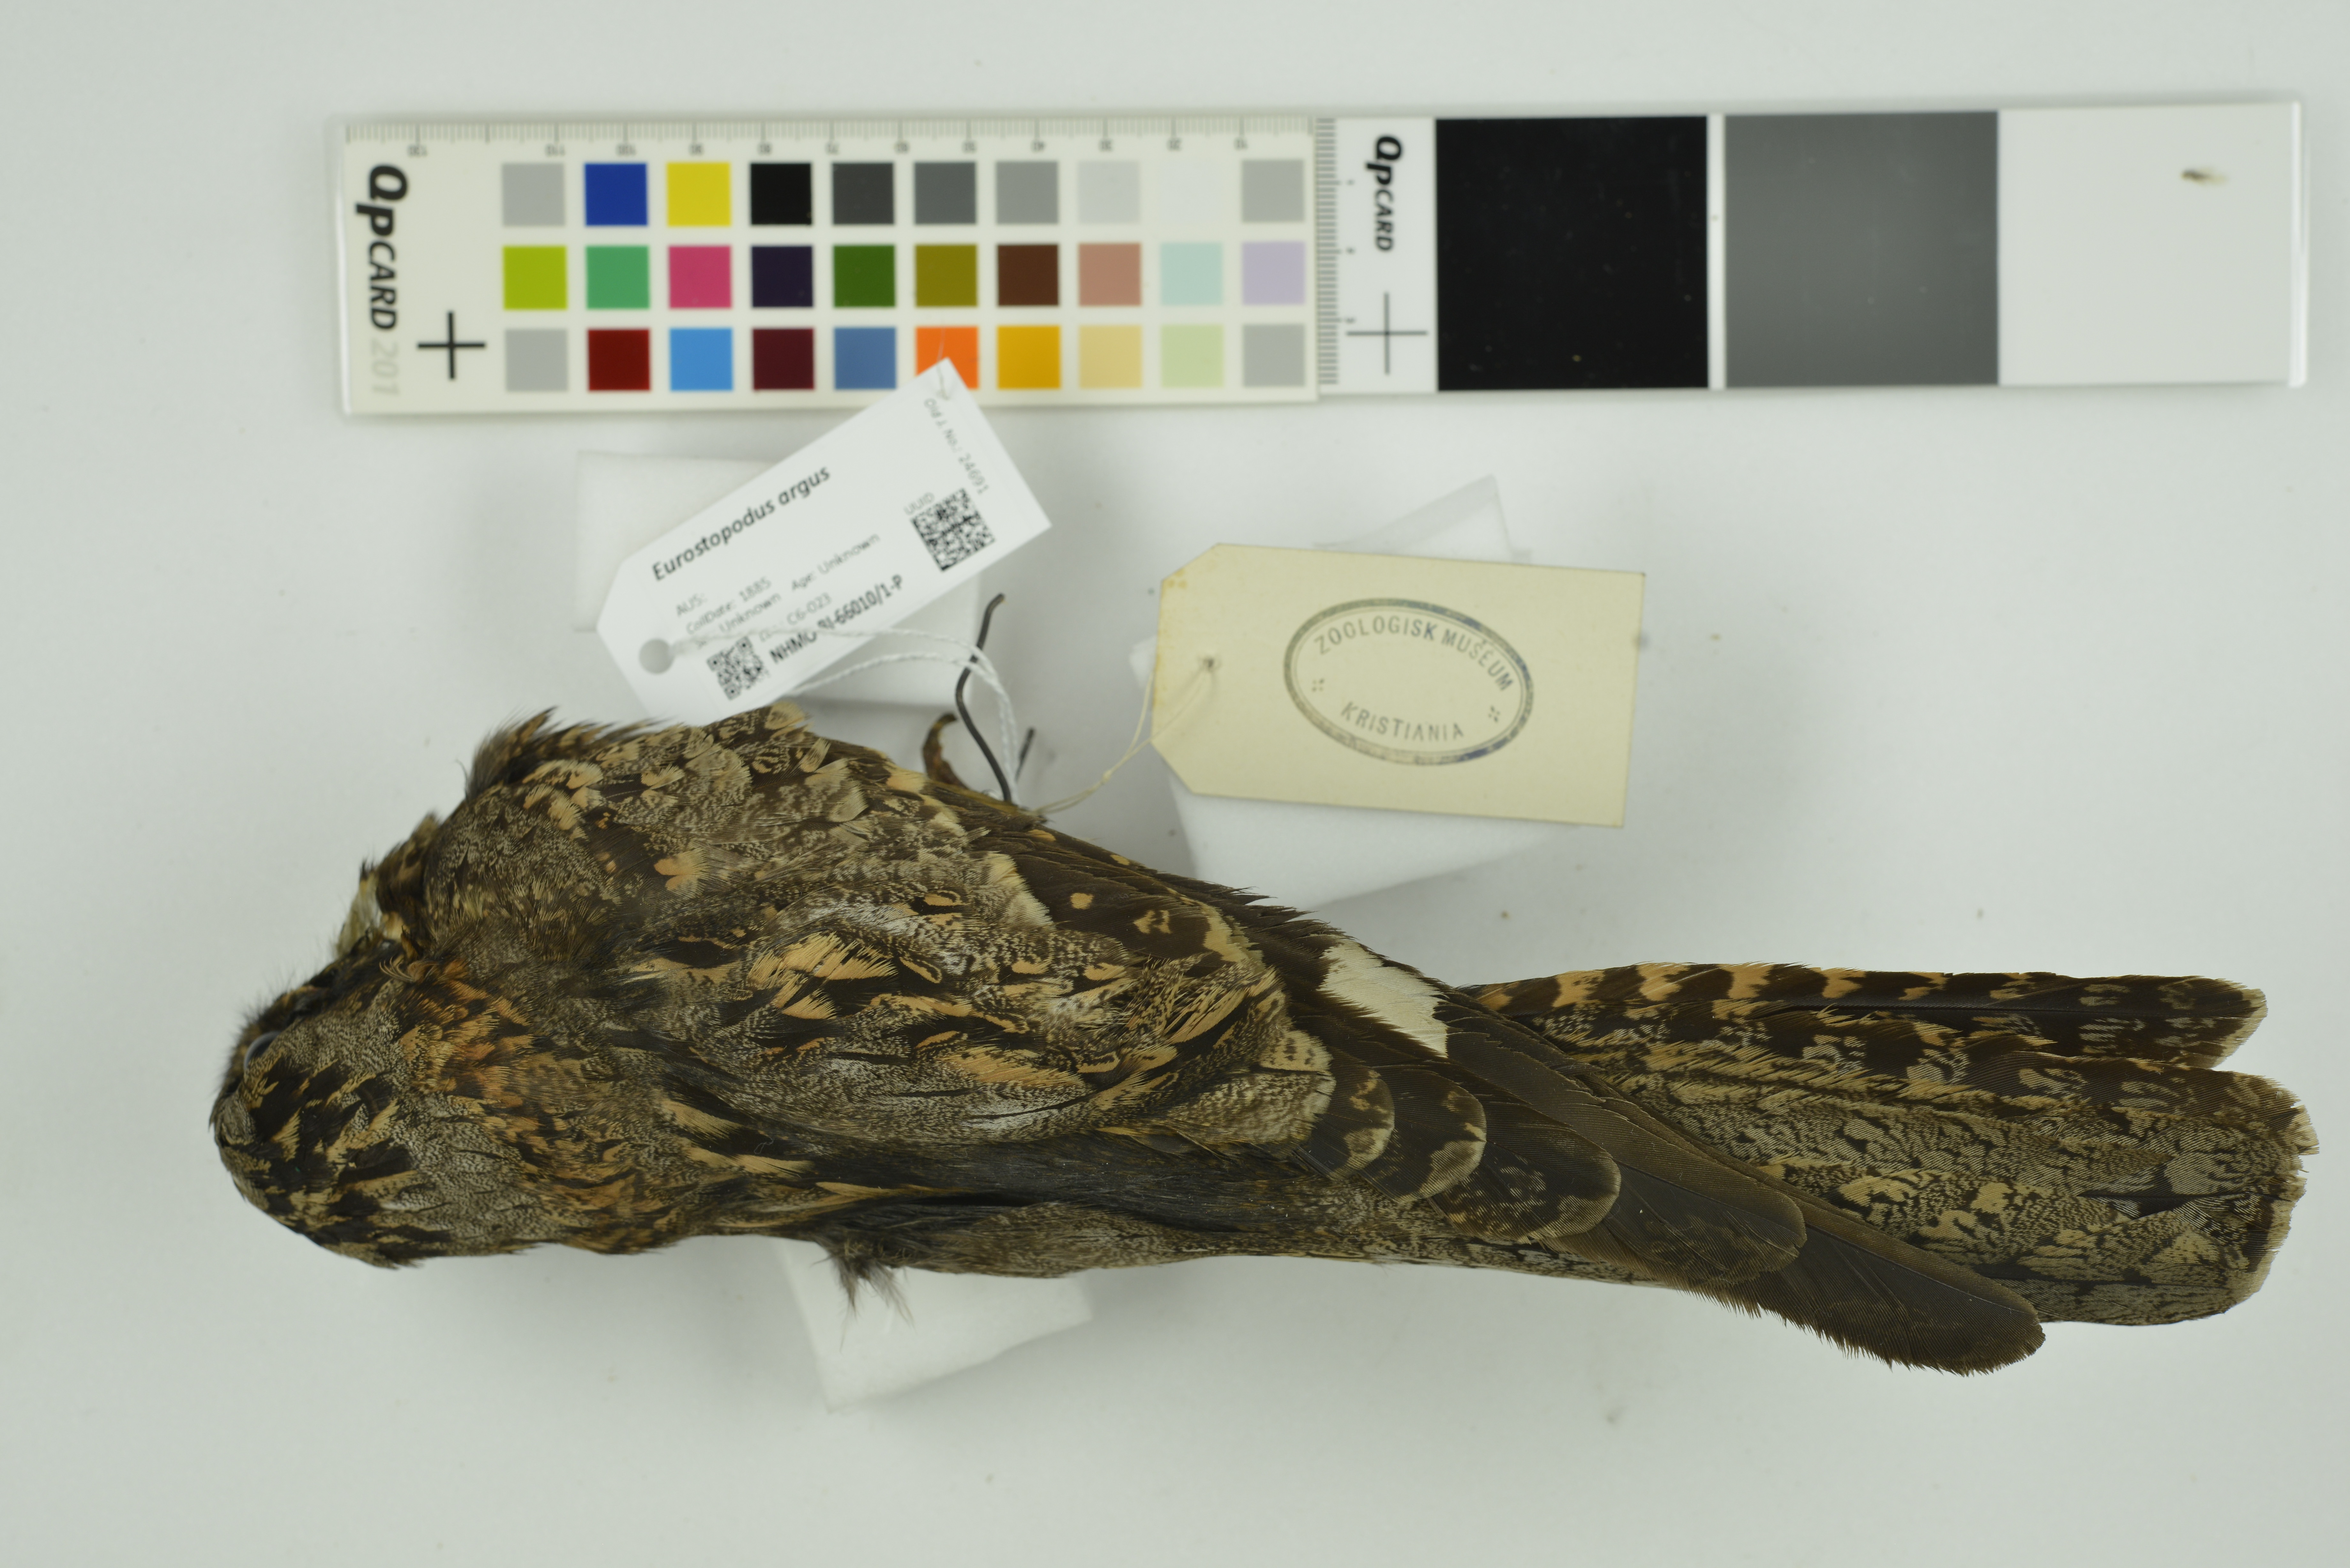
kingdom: Animalia
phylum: Chordata
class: Aves
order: Caprimulgiformes
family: Caprimulgidae
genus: Eurostopodus
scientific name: Eurostopodus argus
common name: Spotted nightjar
